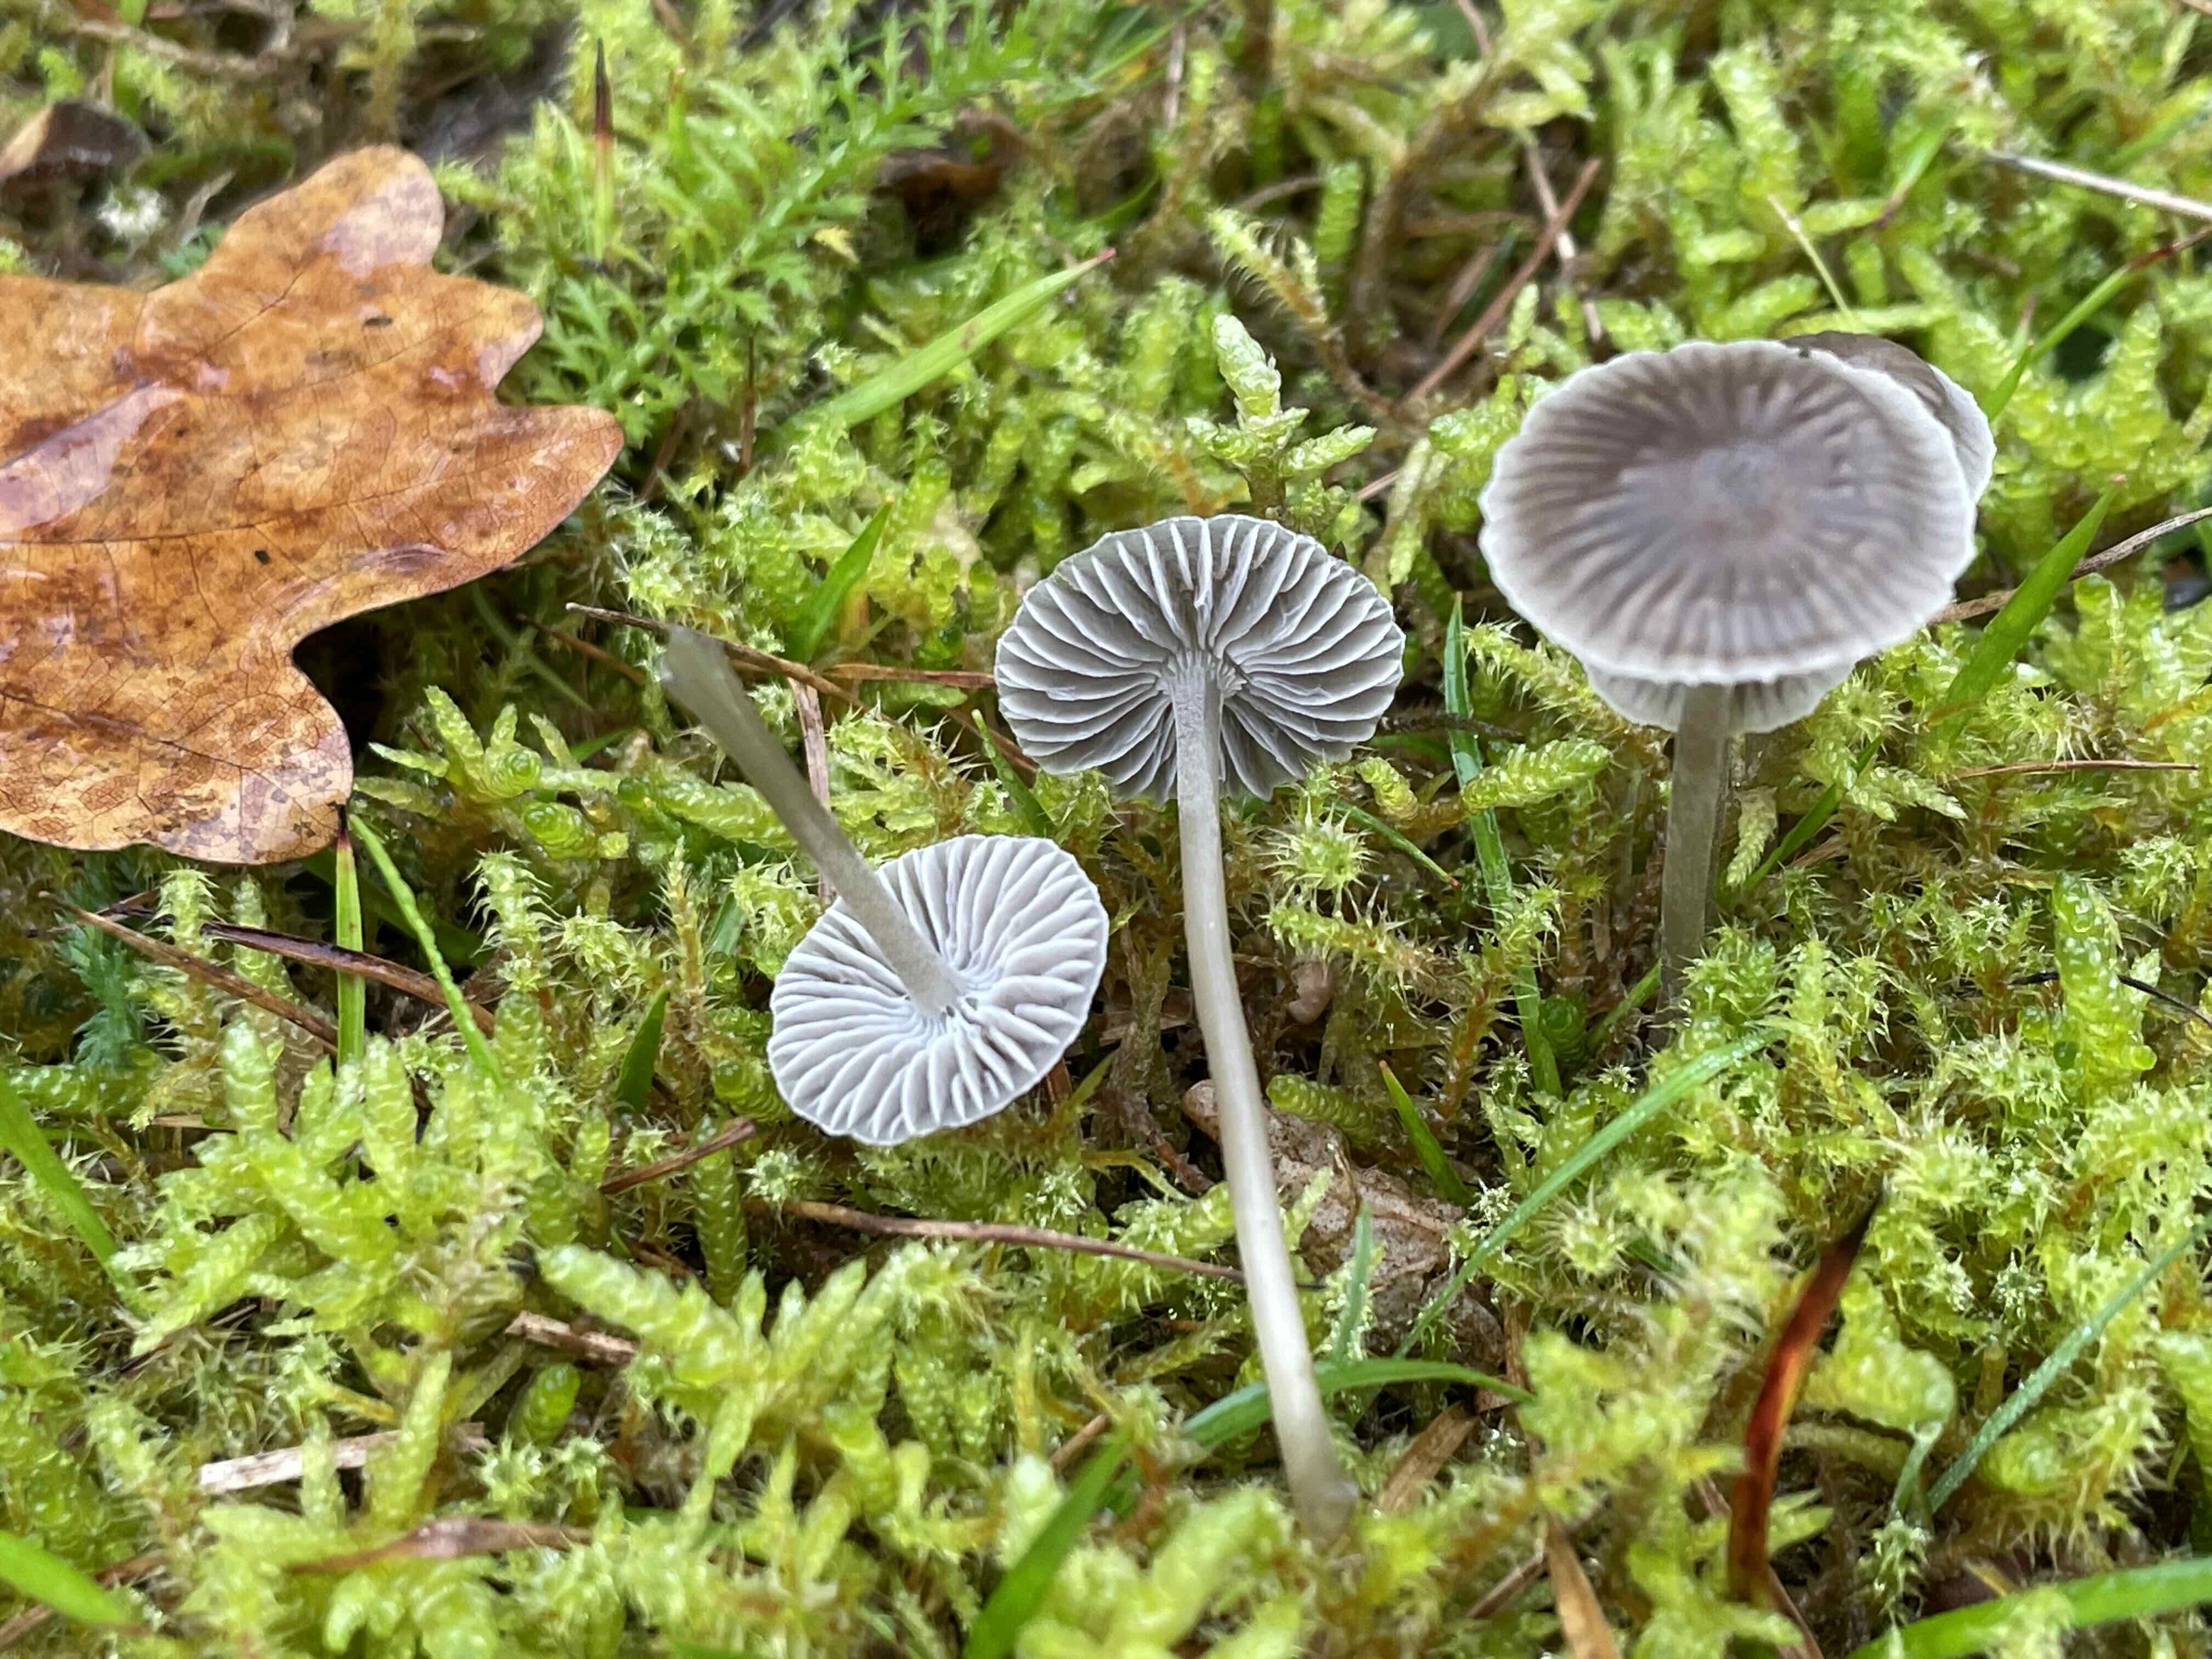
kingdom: Fungi
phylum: Basidiomycota
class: Agaricomycetes
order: Agaricales
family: Mycenaceae
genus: Mycena
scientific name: Mycena
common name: huesvamp
